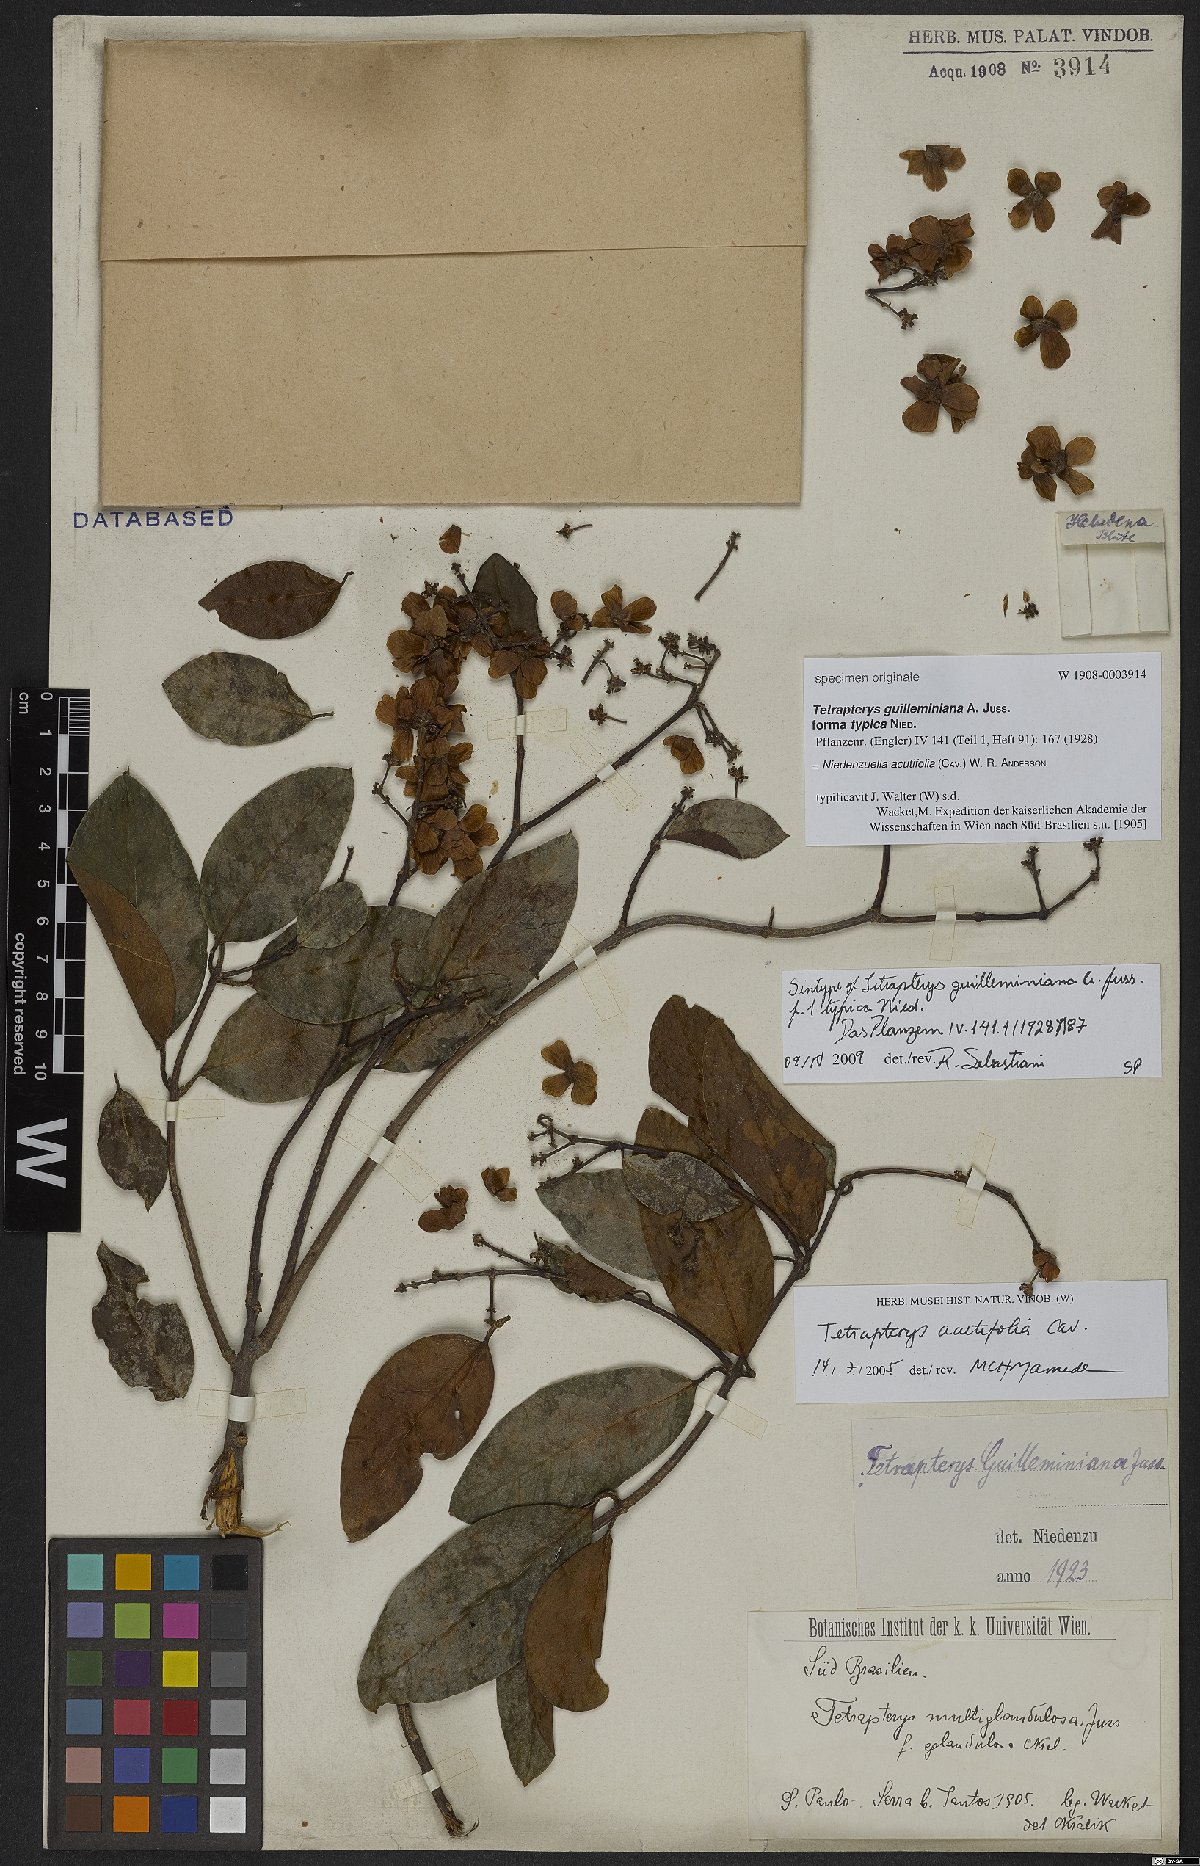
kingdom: Plantae
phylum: Tracheophyta
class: Magnoliopsida
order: Malpighiales
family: Malpighiaceae
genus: Niedenzuella
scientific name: Niedenzuella acutifolia
